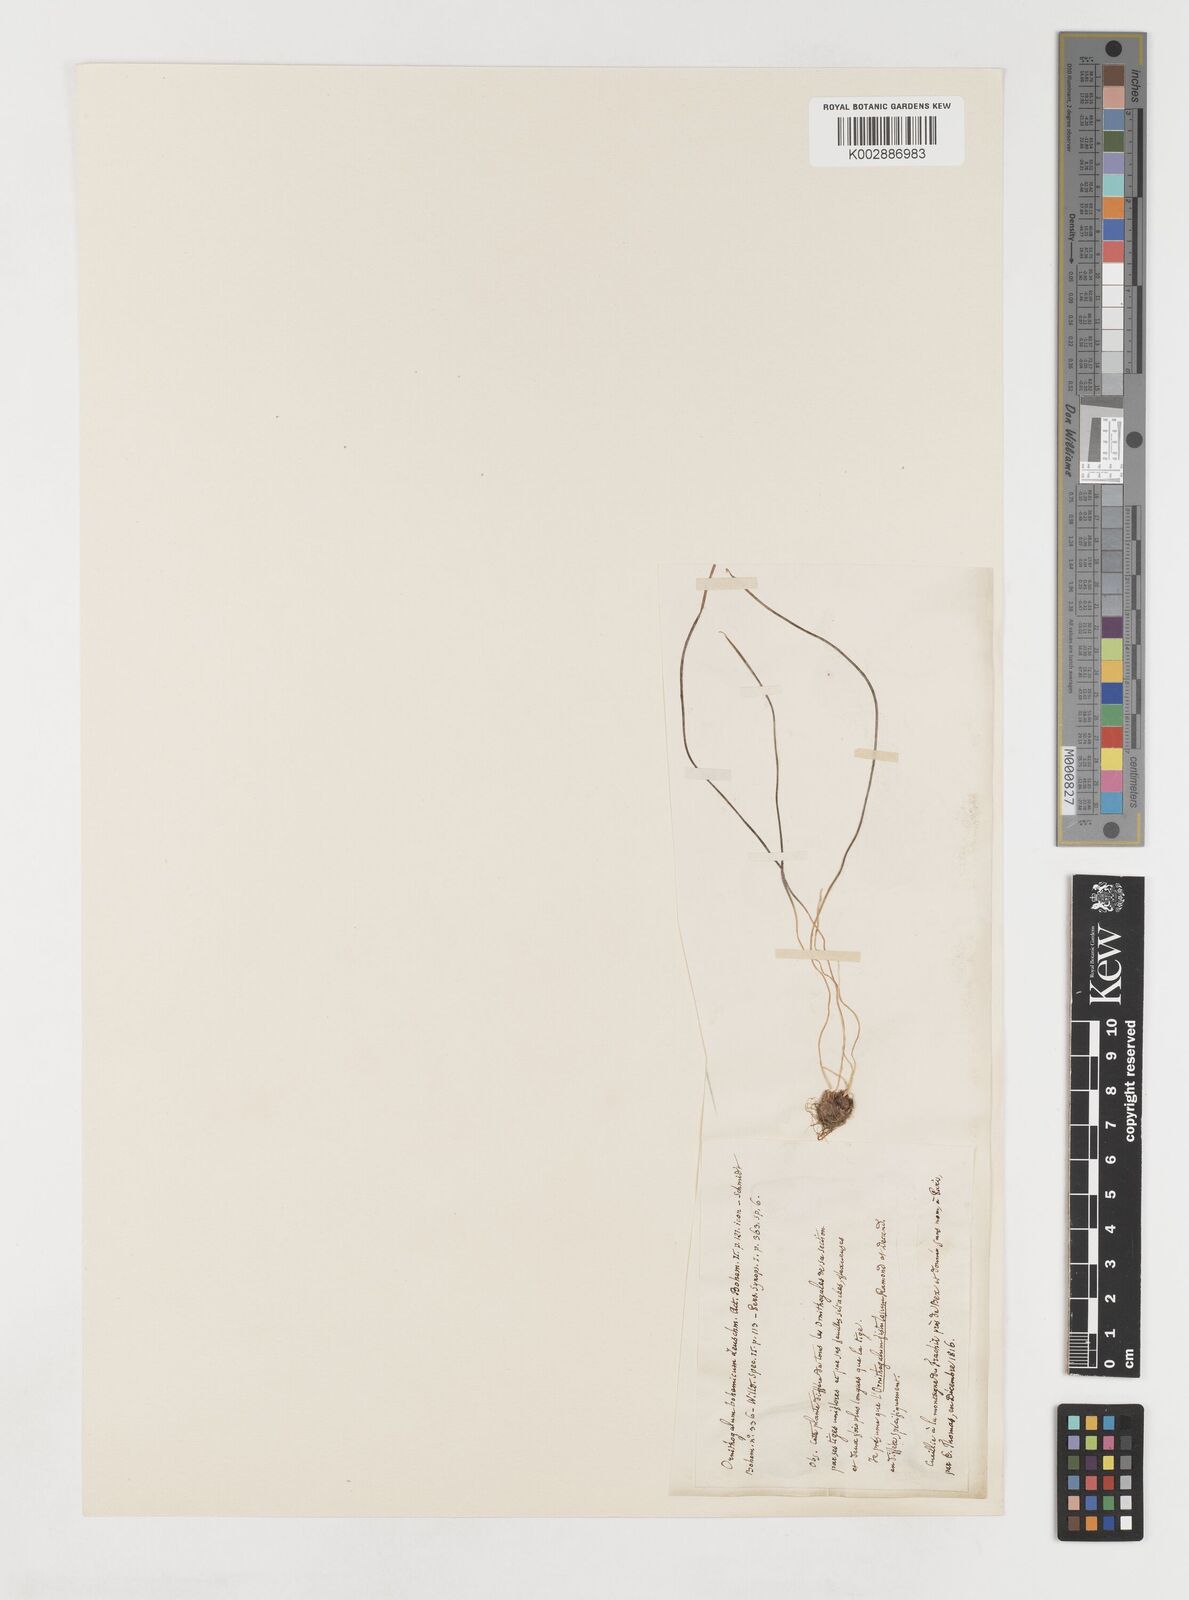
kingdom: Plantae
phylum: Tracheophyta
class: Liliopsida
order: Liliales
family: Liliaceae
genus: Gagea
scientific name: Gagea bohemica
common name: Early star-of-bethlehem
